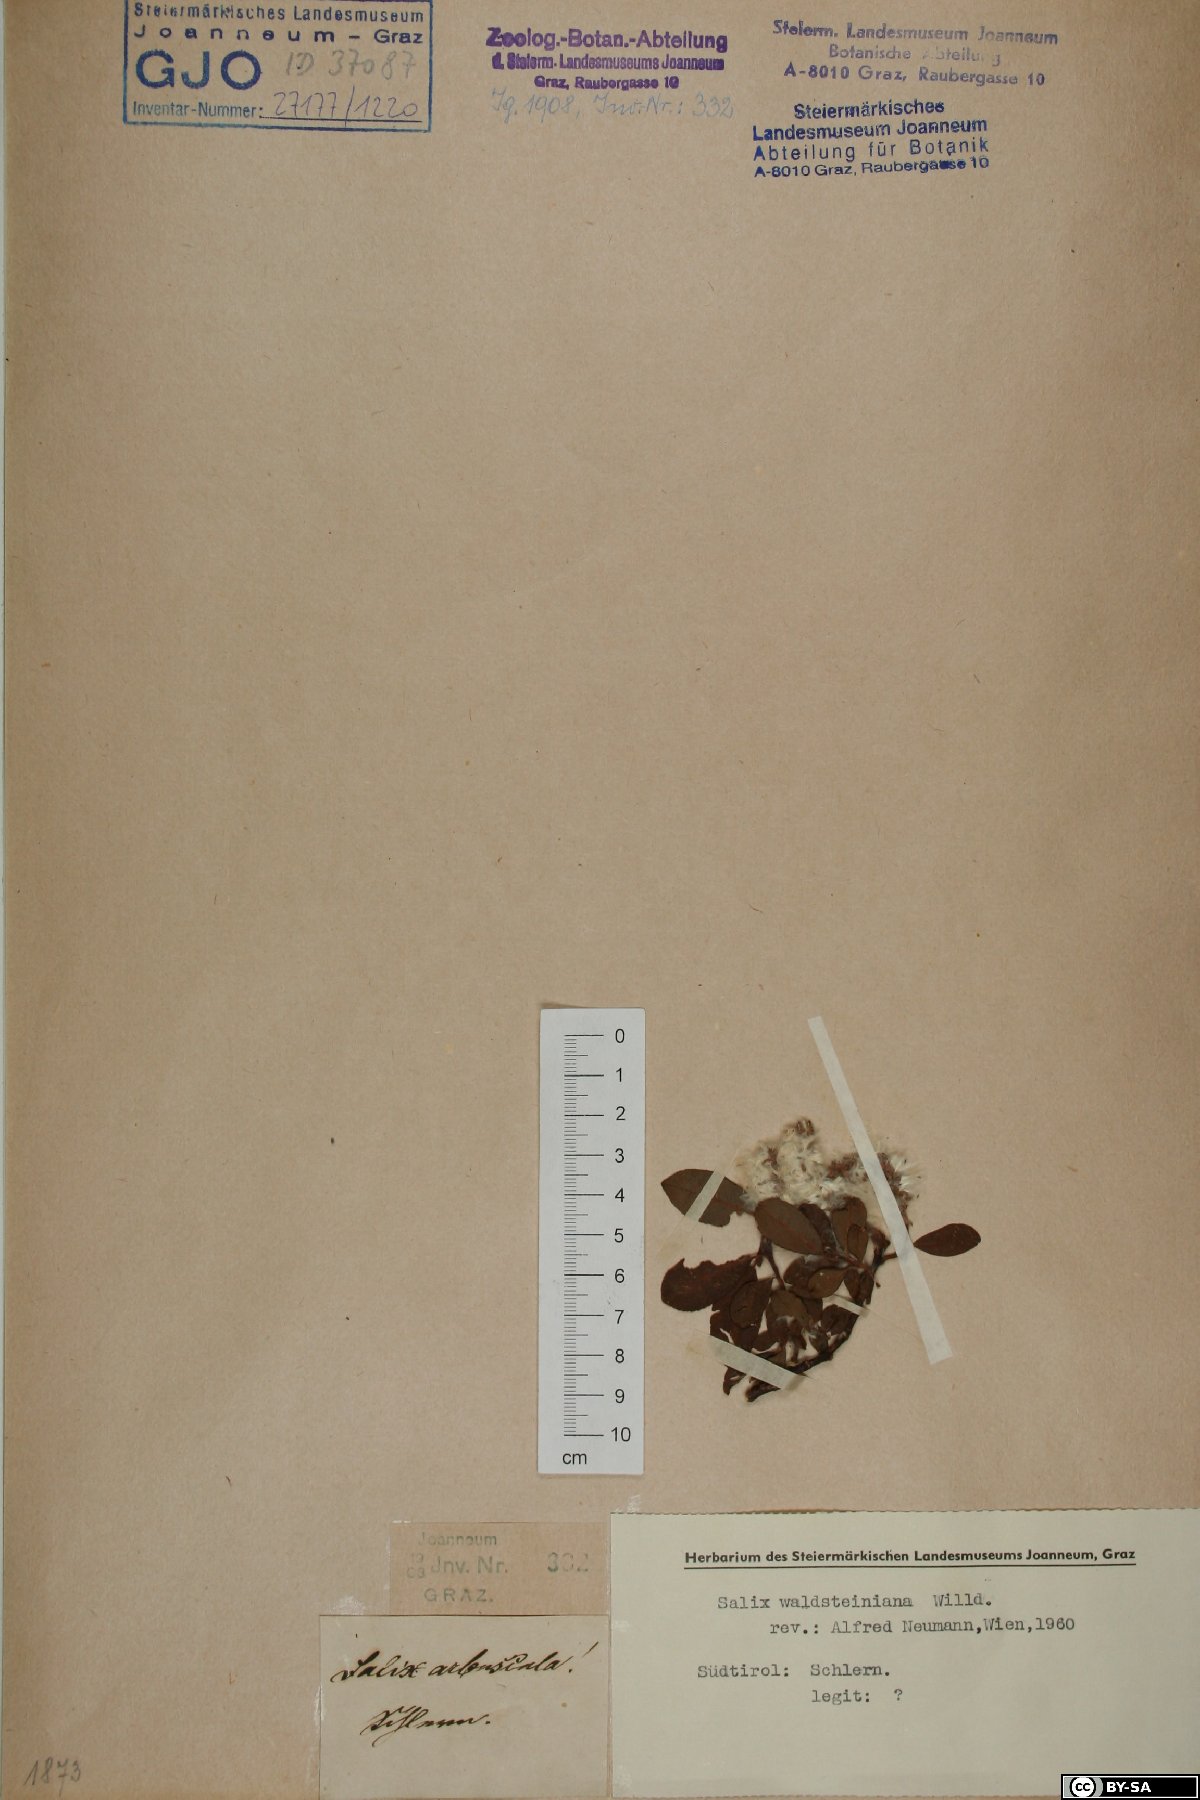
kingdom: Plantae
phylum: Tracheophyta
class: Magnoliopsida
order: Malpighiales
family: Salicaceae
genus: Salix
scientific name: Salix waldsteiniana
